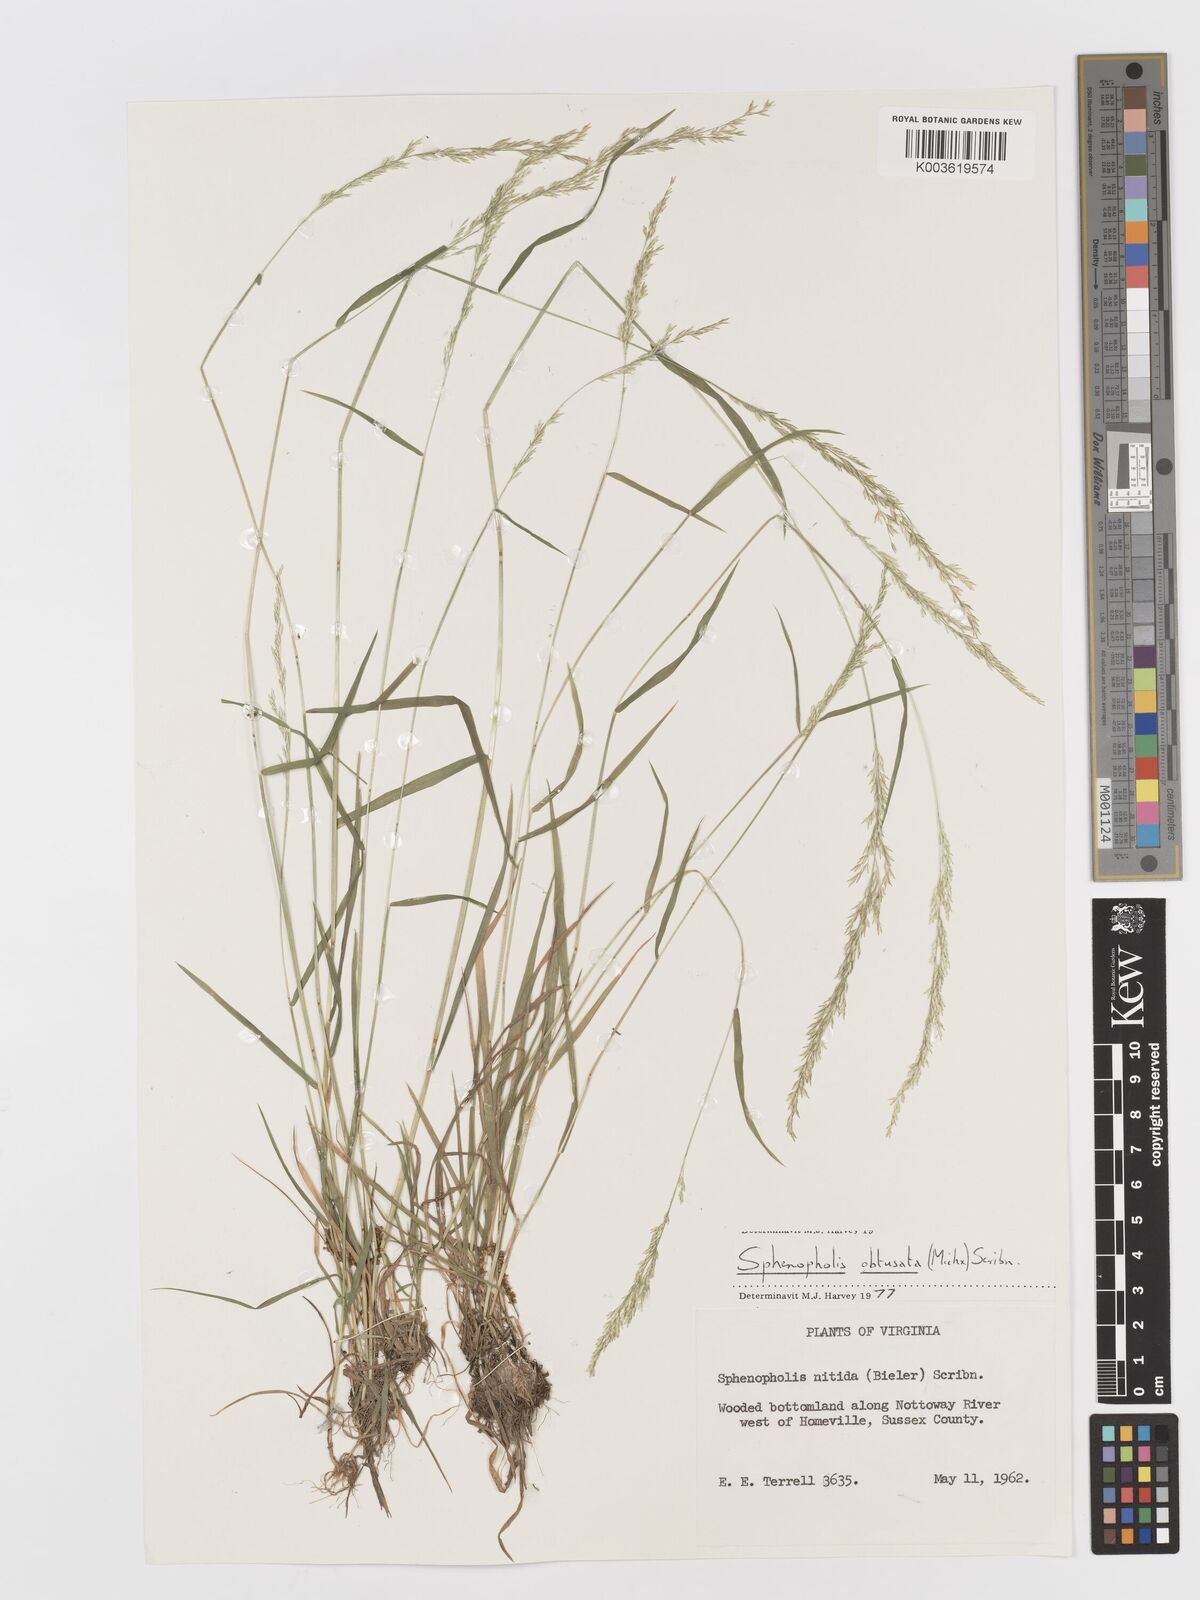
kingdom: Plantae
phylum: Tracheophyta
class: Liliopsida
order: Poales
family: Poaceae
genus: Sphenopholis
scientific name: Sphenopholis obtusata
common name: Prairie grass
